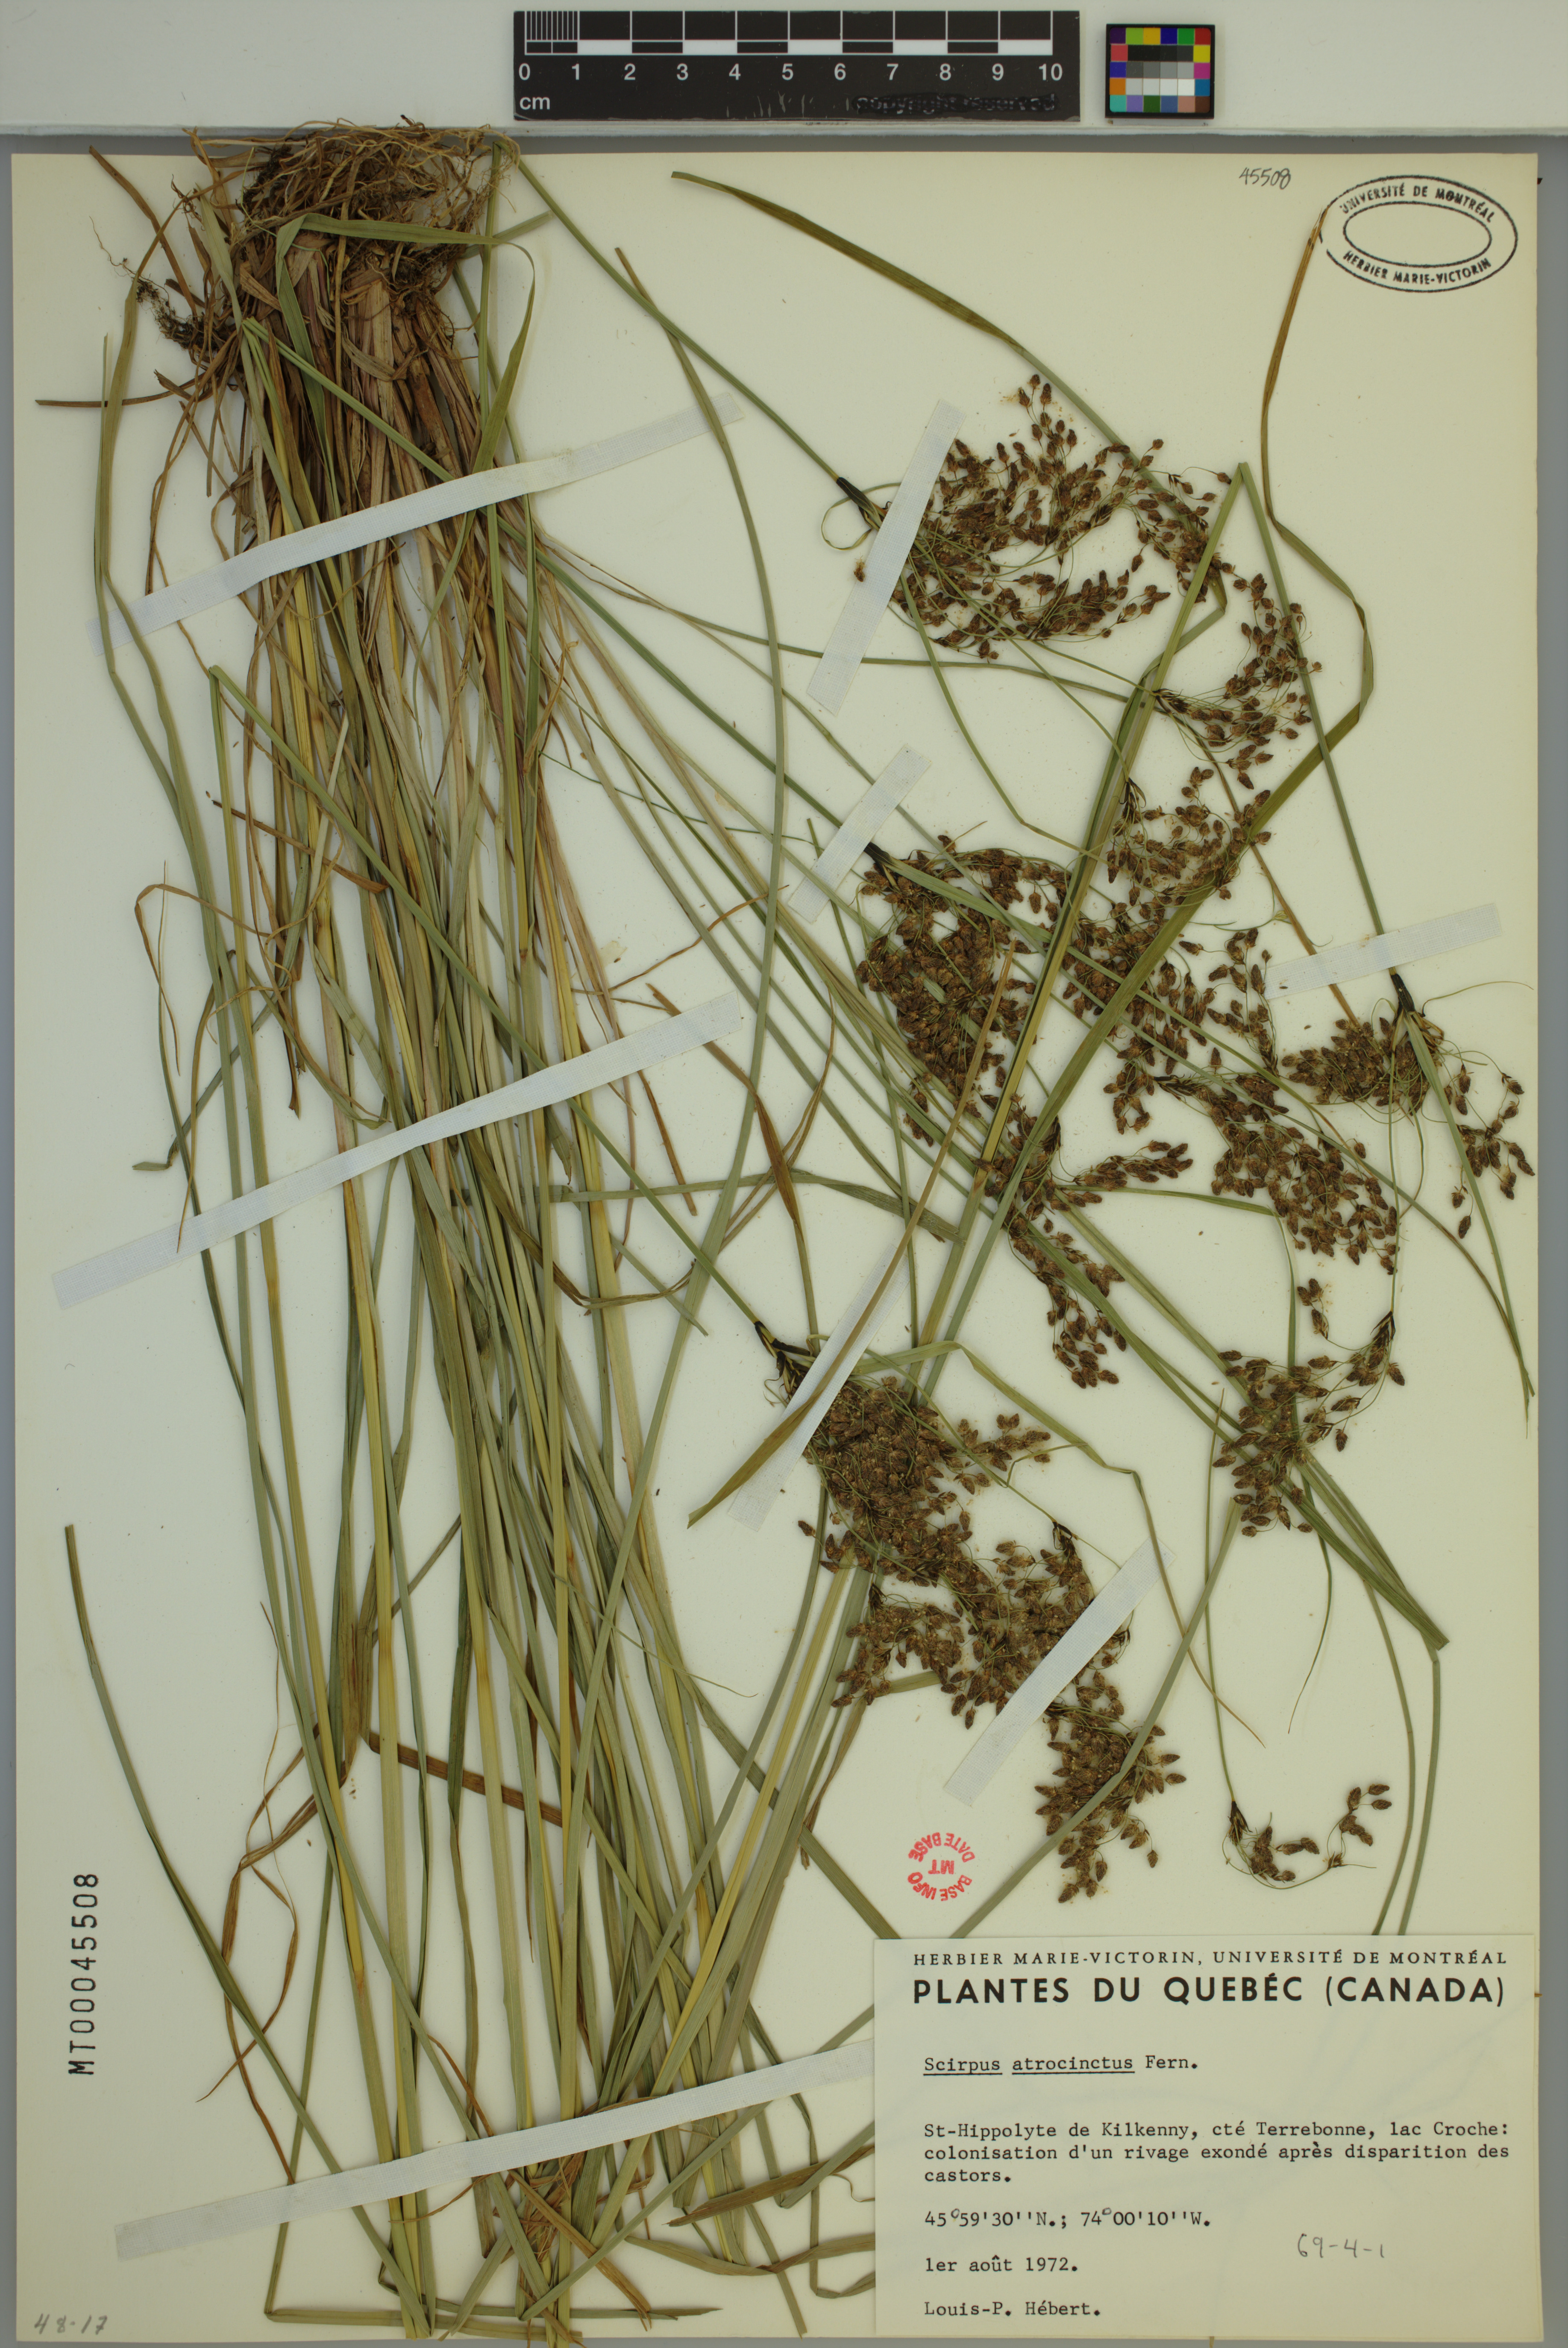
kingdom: Plantae
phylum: Tracheophyta
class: Liliopsida
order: Poales
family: Cyperaceae
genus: Scirpus
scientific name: Scirpus atrocinctus
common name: Black-girdled bulrush
